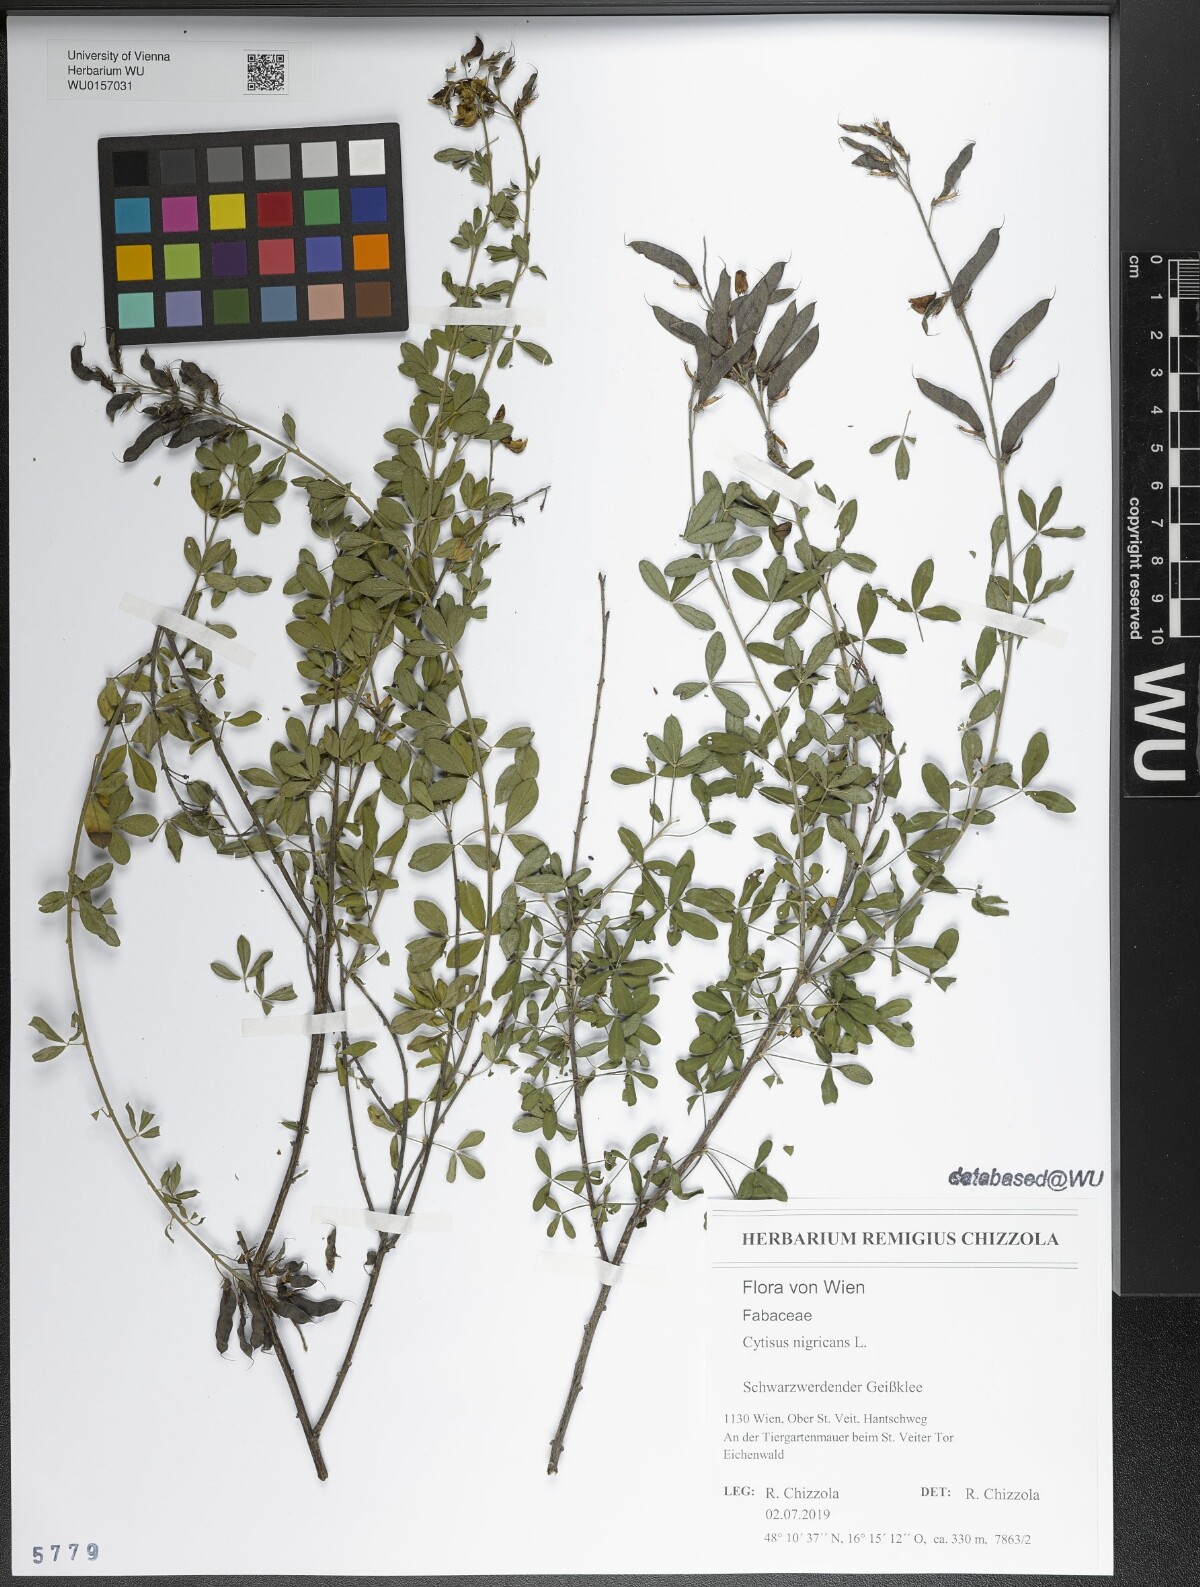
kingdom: Plantae
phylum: Tracheophyta
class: Magnoliopsida
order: Fabales
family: Fabaceae
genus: Cytisus
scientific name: Cytisus nigricans
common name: Black broom
